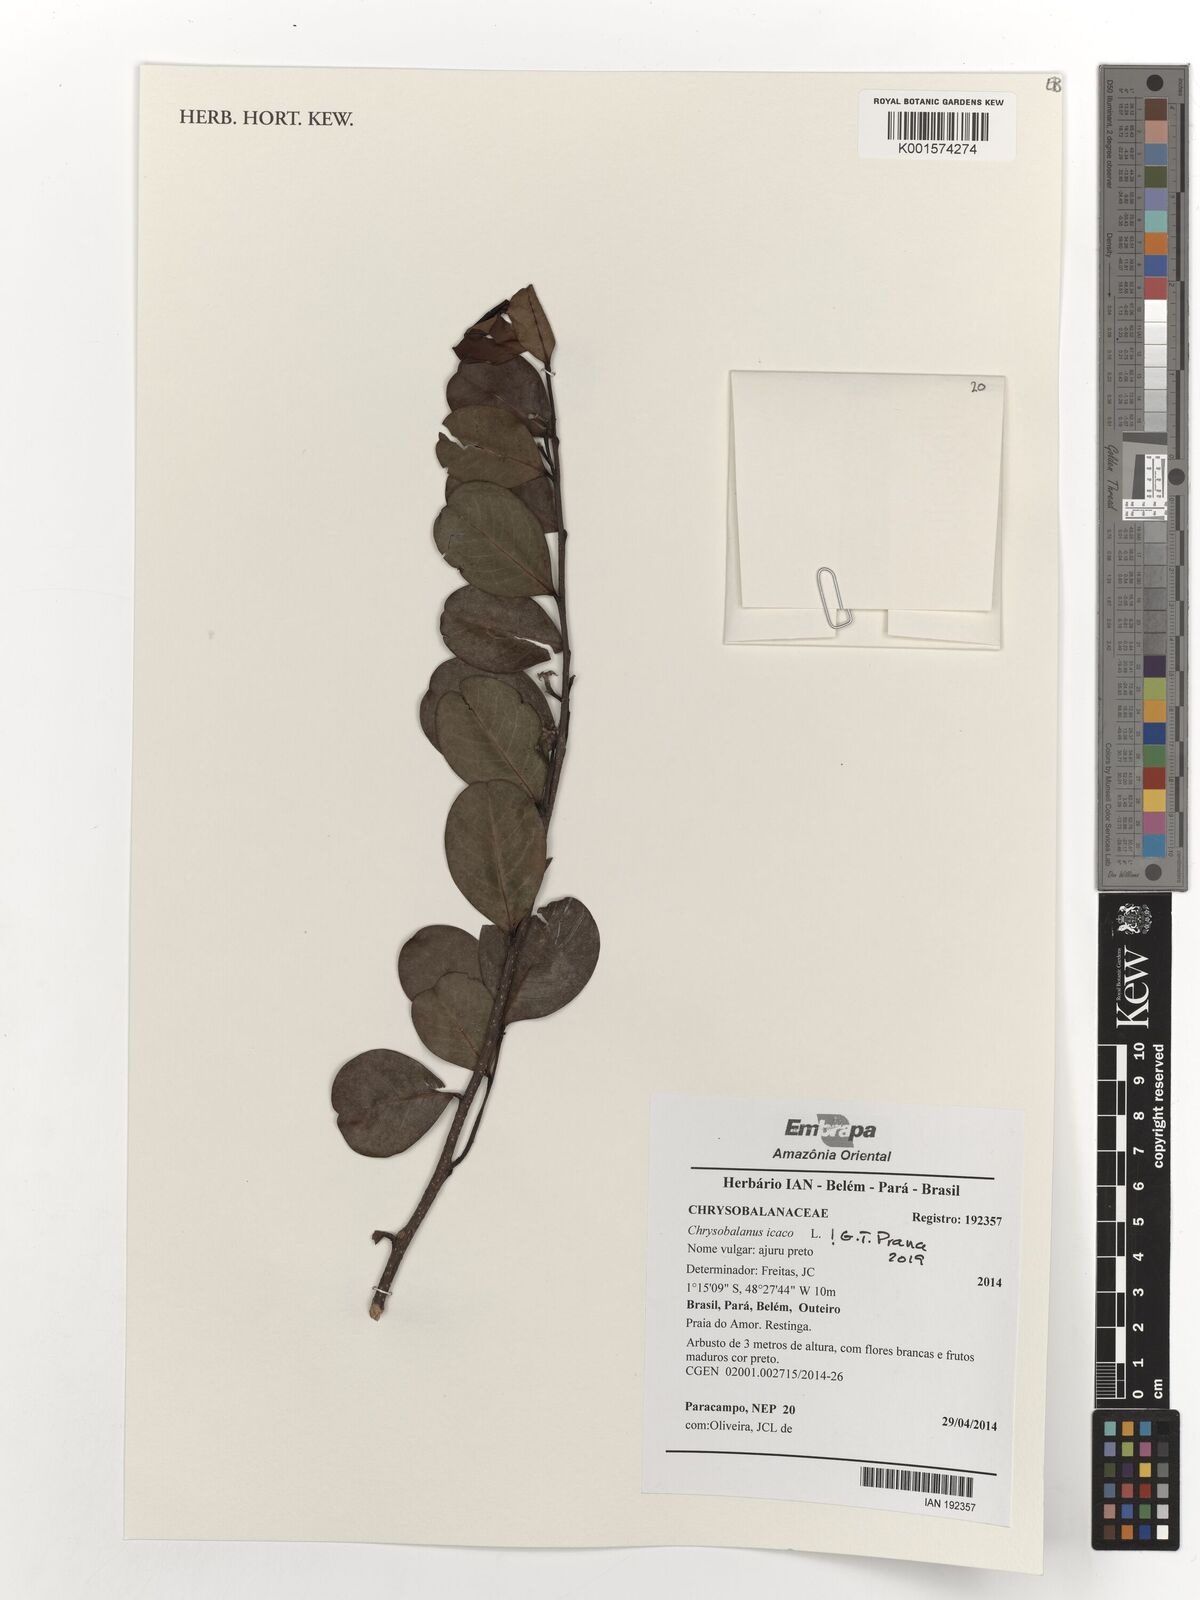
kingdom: Plantae
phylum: Tracheophyta
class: Magnoliopsida
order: Malpighiales
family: Chrysobalanaceae
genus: Chrysobalanus
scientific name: Chrysobalanus icaco
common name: Coco plum
